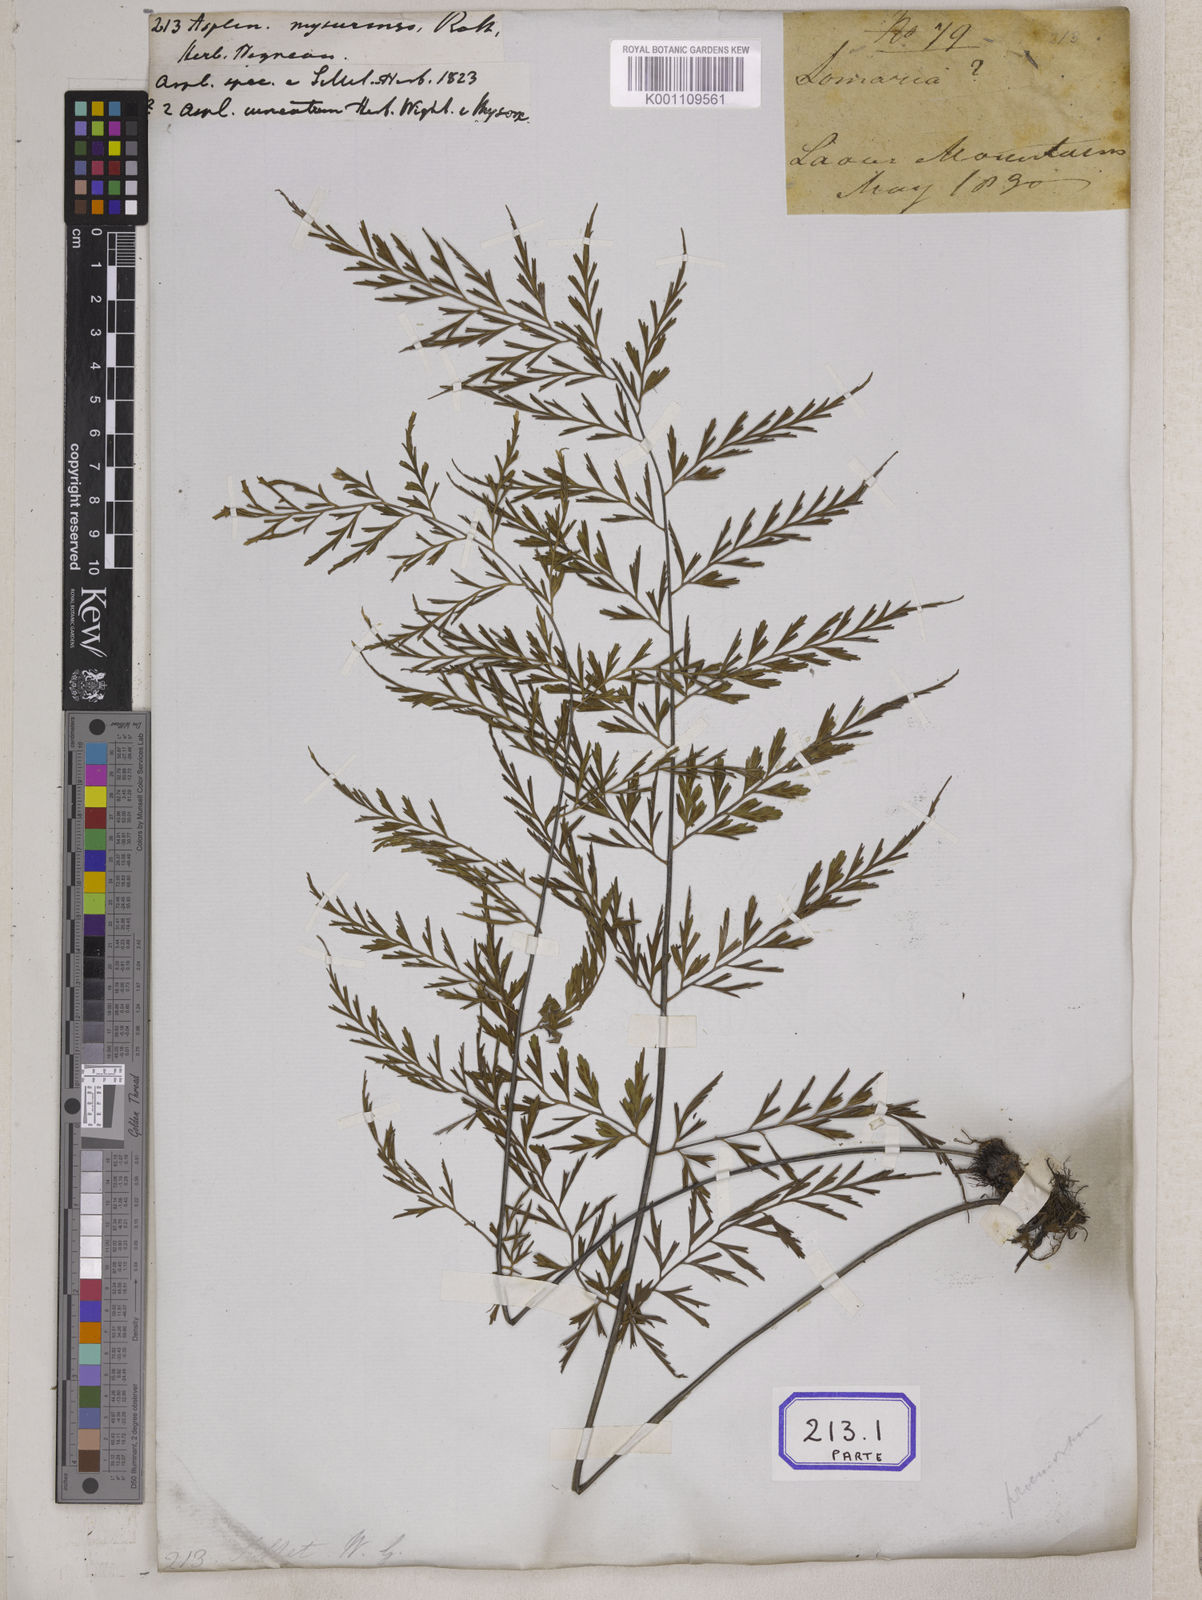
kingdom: Plantae
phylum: Tracheophyta
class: Polypodiopsida
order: Polypodiales
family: Aspleniaceae
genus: Asplenium
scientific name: Asplenium mysorense
